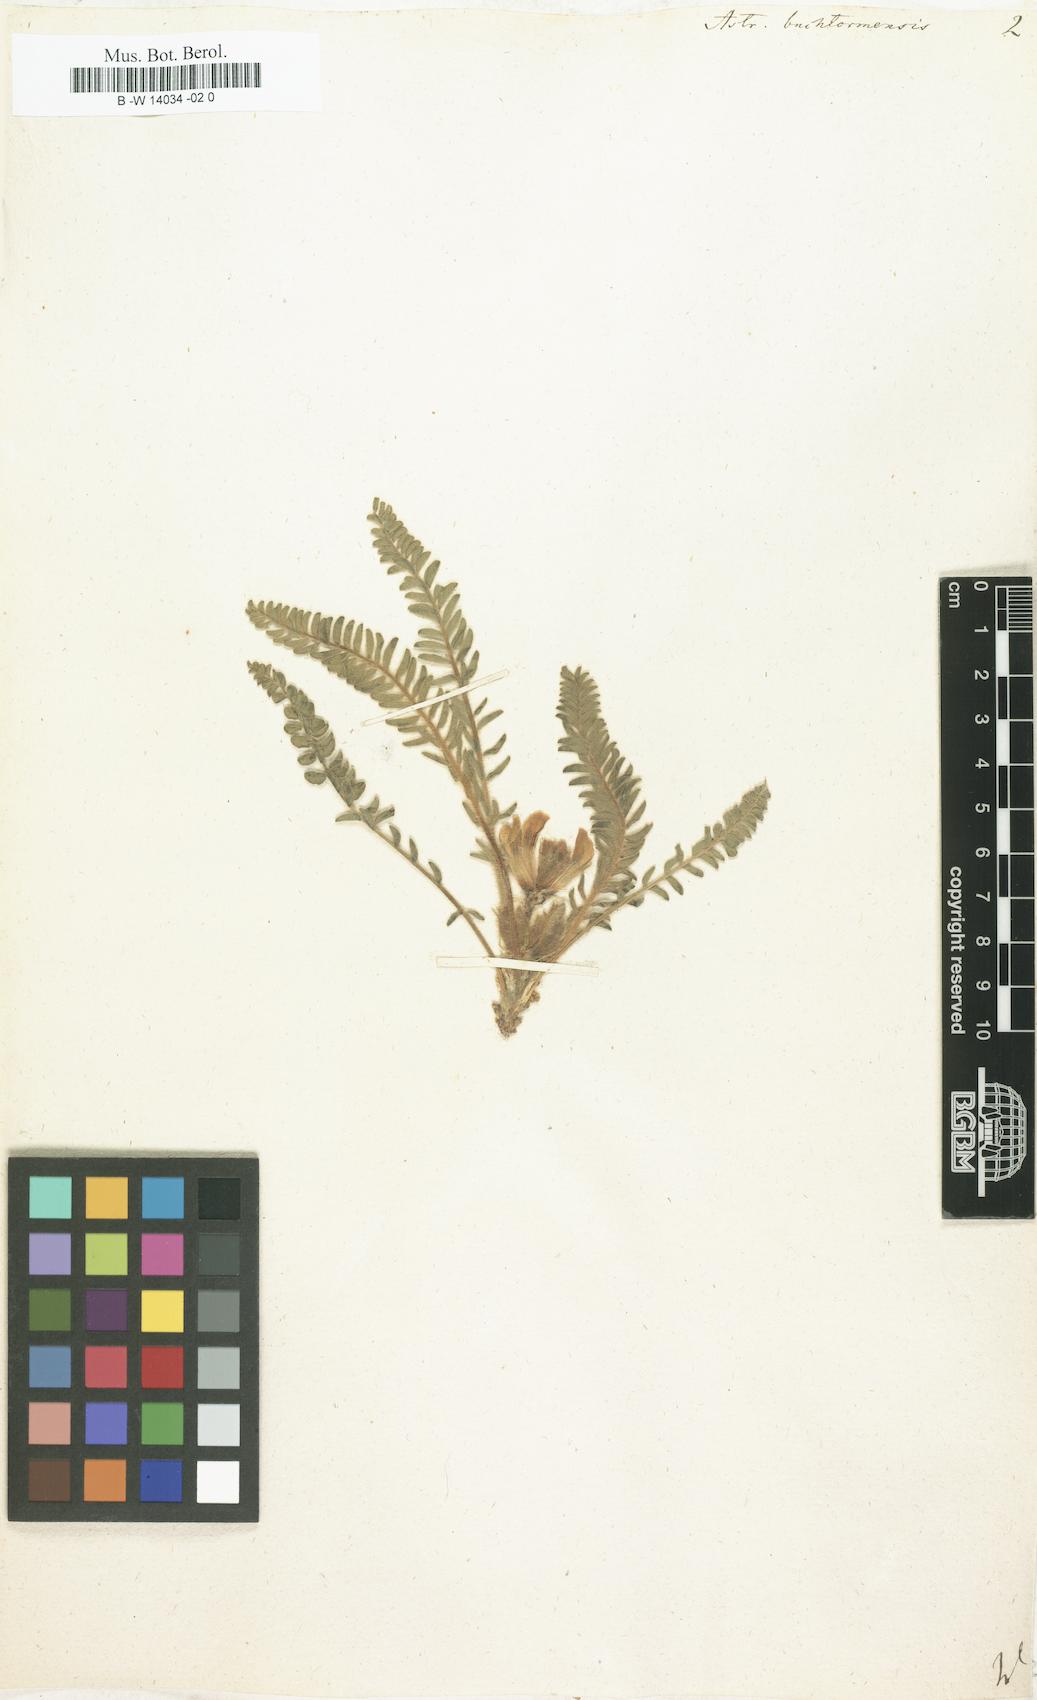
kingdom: Plantae
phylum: Tracheophyta
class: Magnoliopsida
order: Fabales
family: Fabaceae
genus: Astragalus
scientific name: Astragalus buchtormensis
